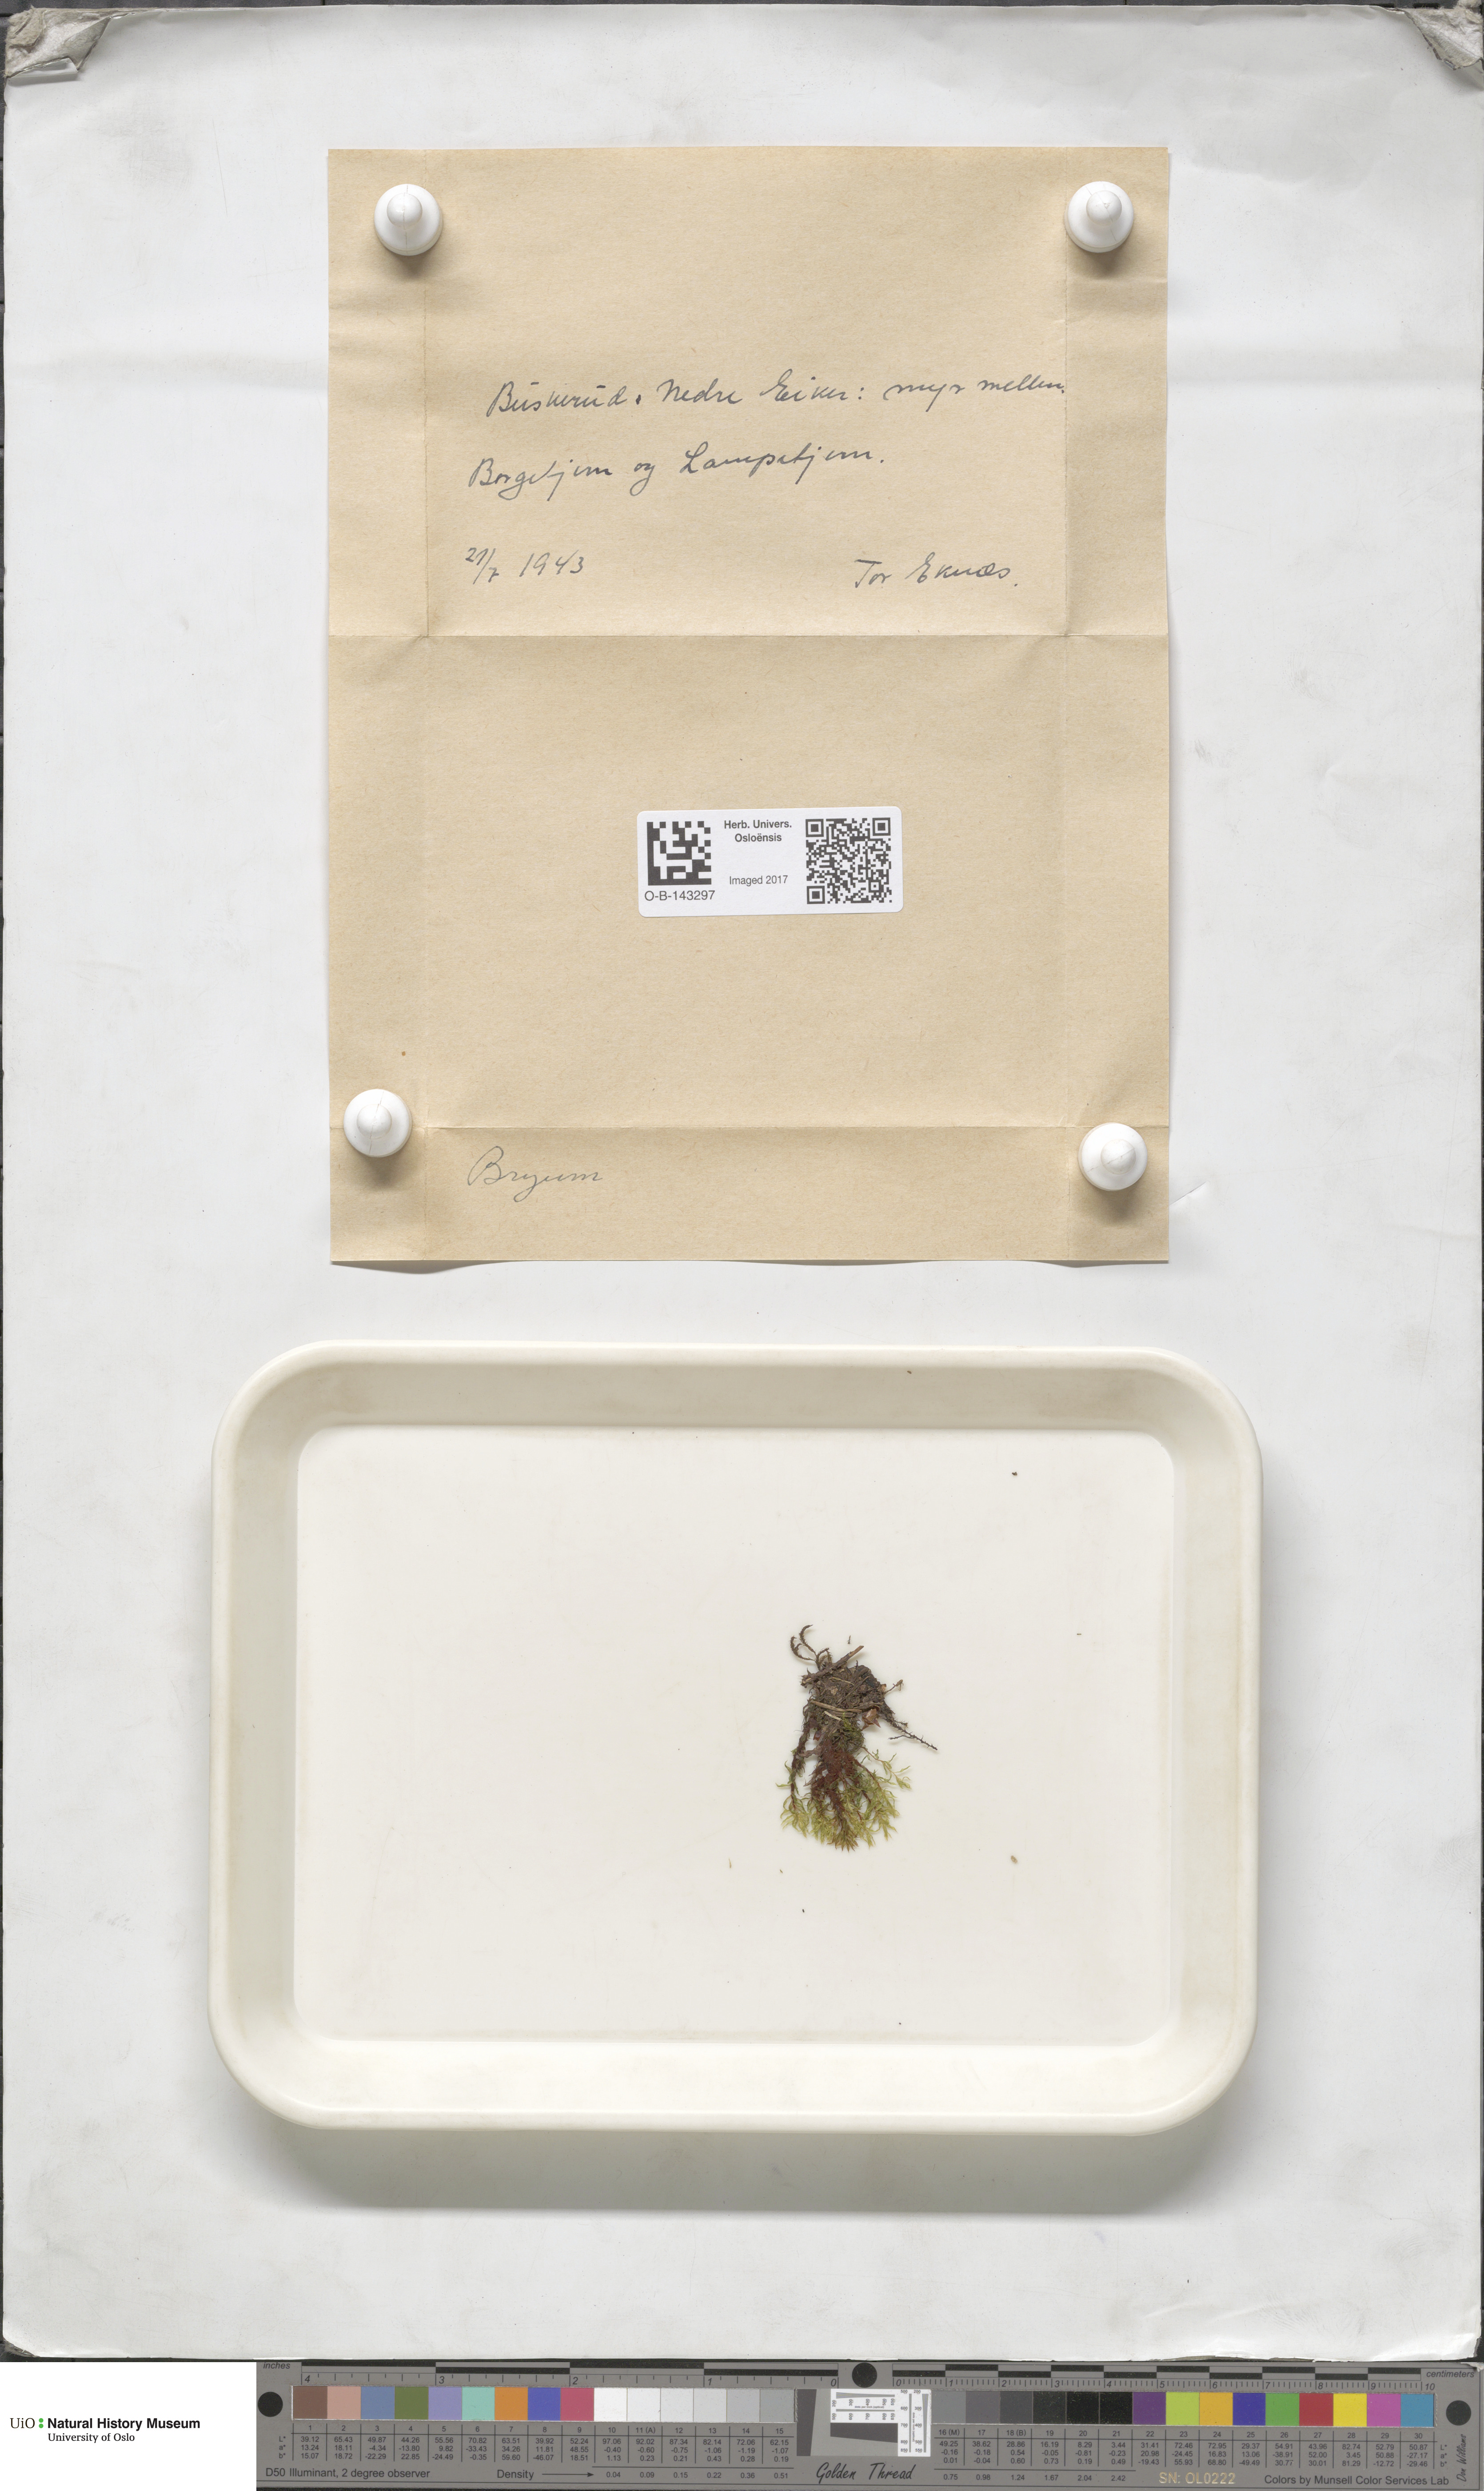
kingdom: Plantae
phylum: Bryophyta
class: Bryopsida
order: Bryales
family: Bryaceae
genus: Bryum
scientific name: Bryum
